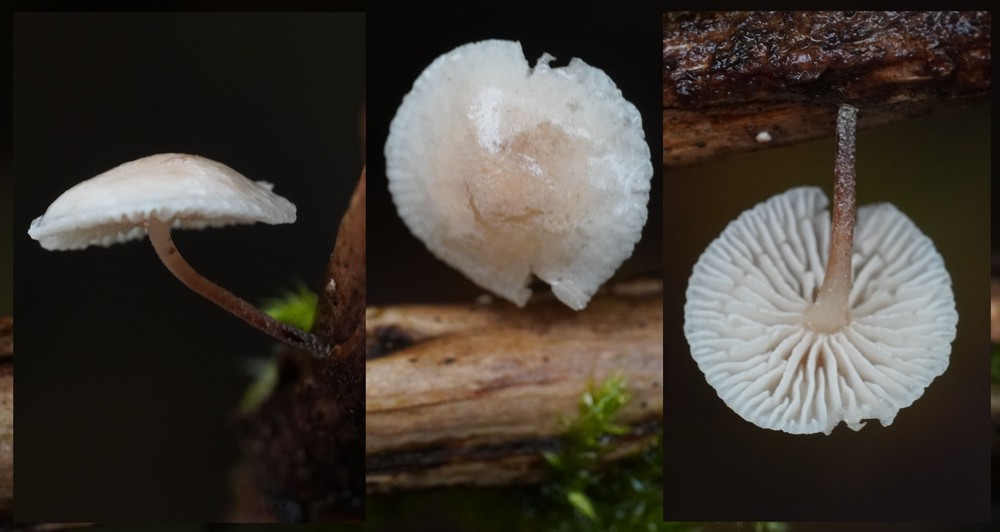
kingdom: Fungi
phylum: Basidiomycota
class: Agaricomycetes
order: Agaricales
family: Omphalotaceae
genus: Collybiopsis
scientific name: Collybiopsis ramealis
